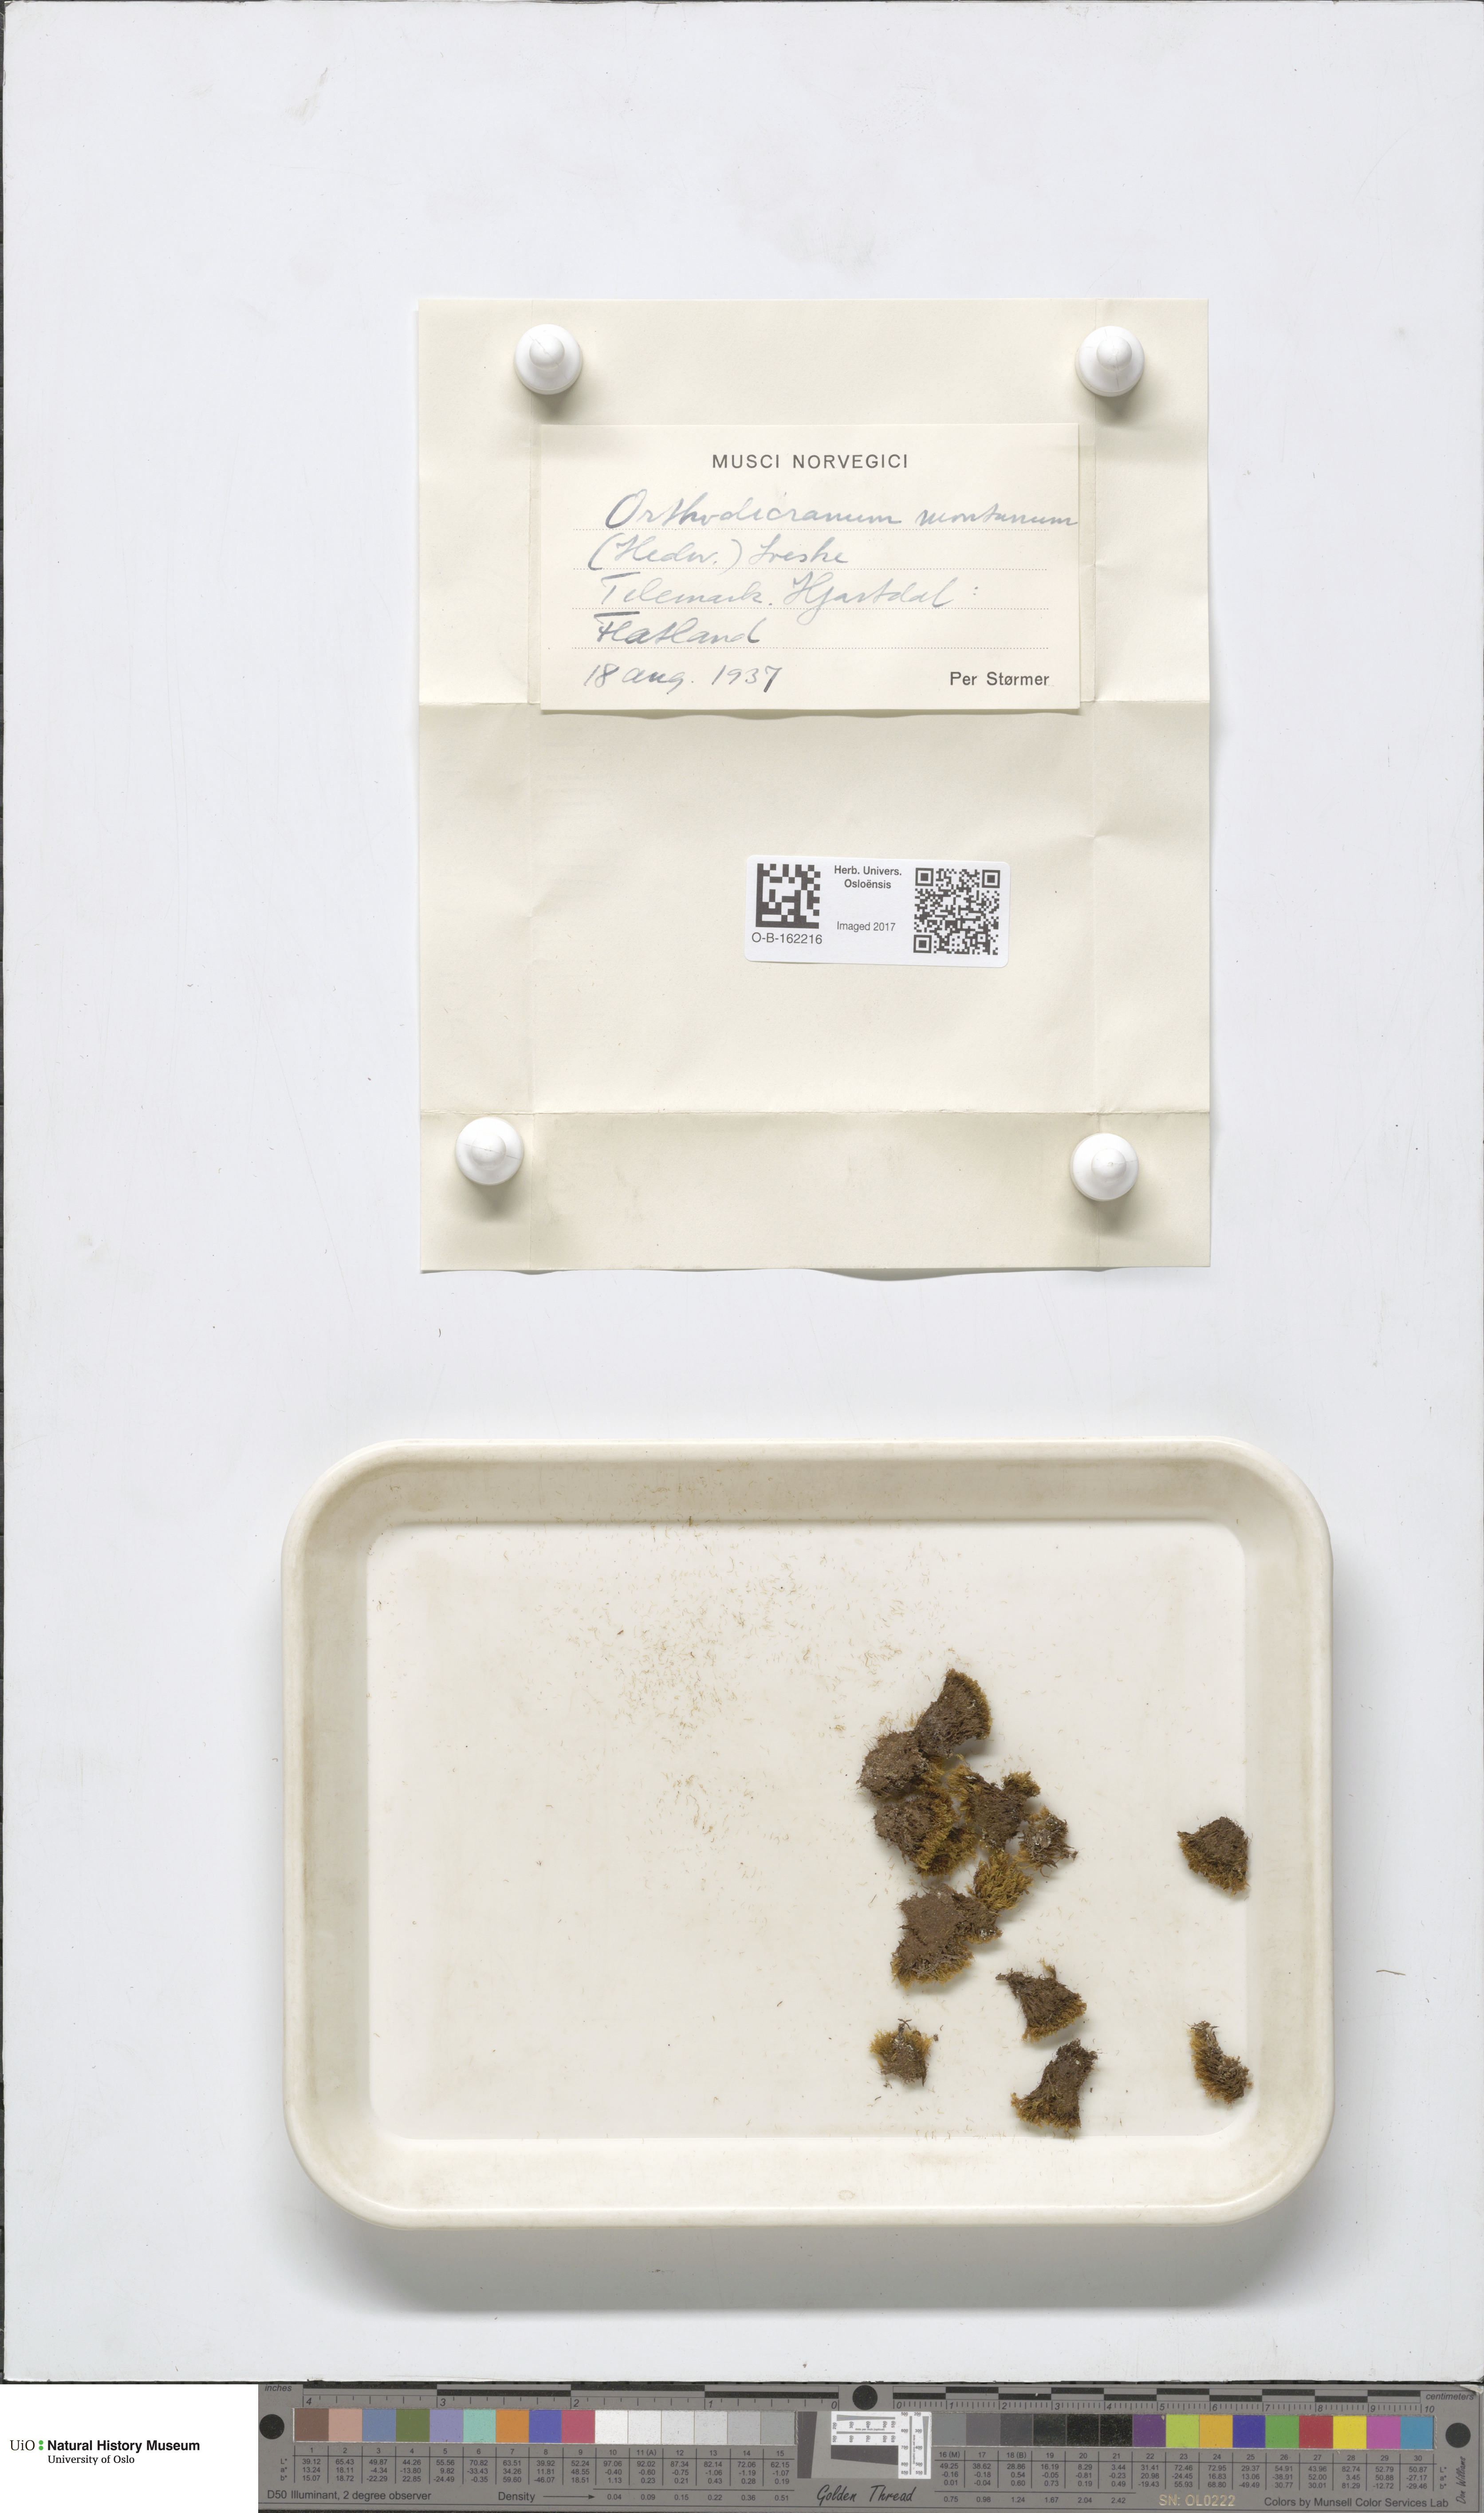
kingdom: Plantae
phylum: Bryophyta
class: Bryopsida
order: Dicranales
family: Dicranaceae
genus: Orthodicranum
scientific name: Orthodicranum montanum
